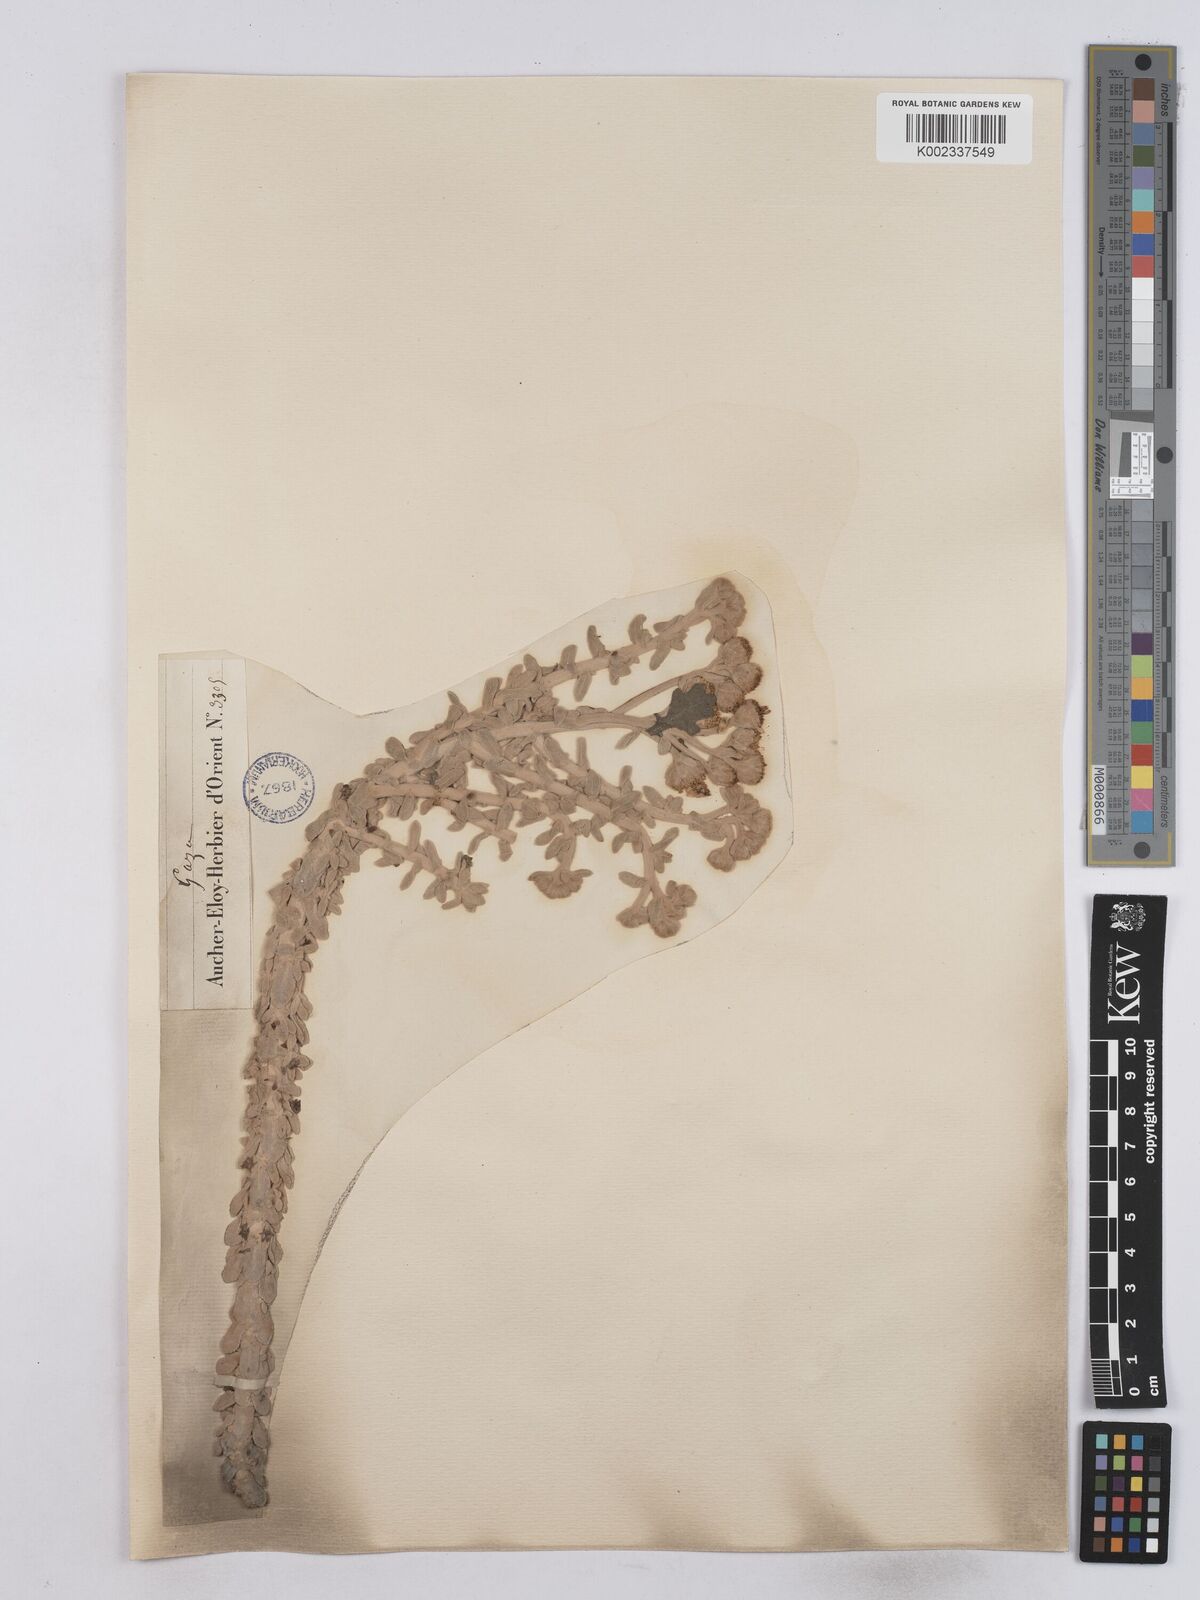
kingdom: Plantae
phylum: Tracheophyta
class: Magnoliopsida
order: Asterales
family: Asteraceae
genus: Achillea
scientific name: Achillea maritima
